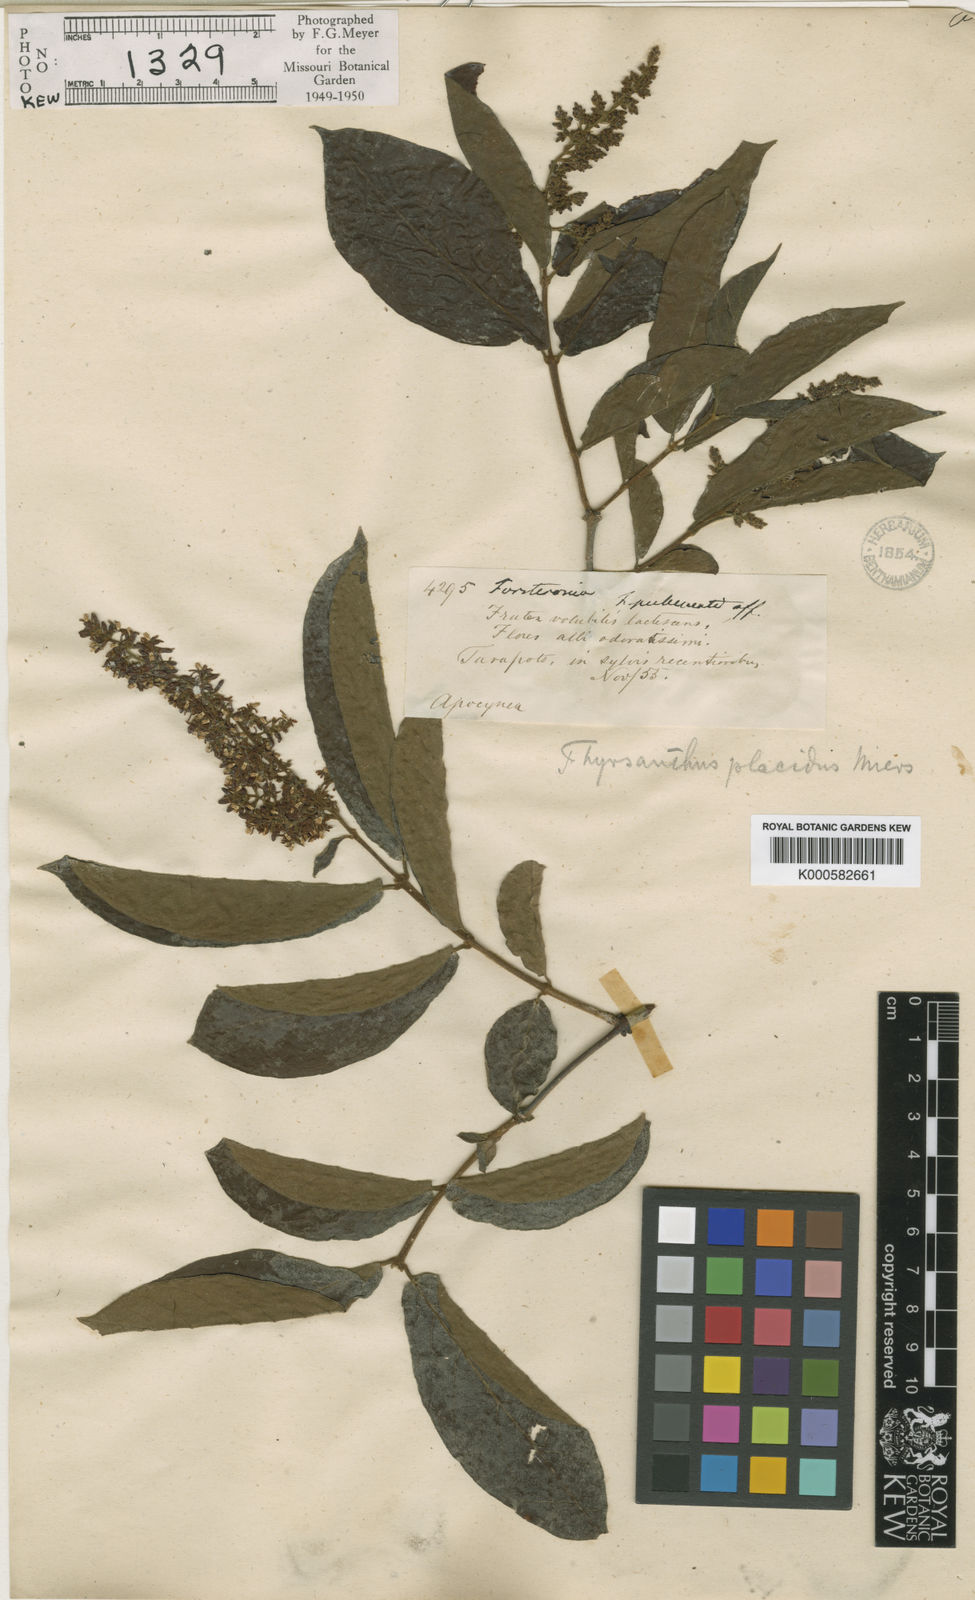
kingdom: Plantae
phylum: Tracheophyta
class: Magnoliopsida
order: Gentianales
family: Apocynaceae
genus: Forsteronia
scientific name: Forsteronia pubescens
